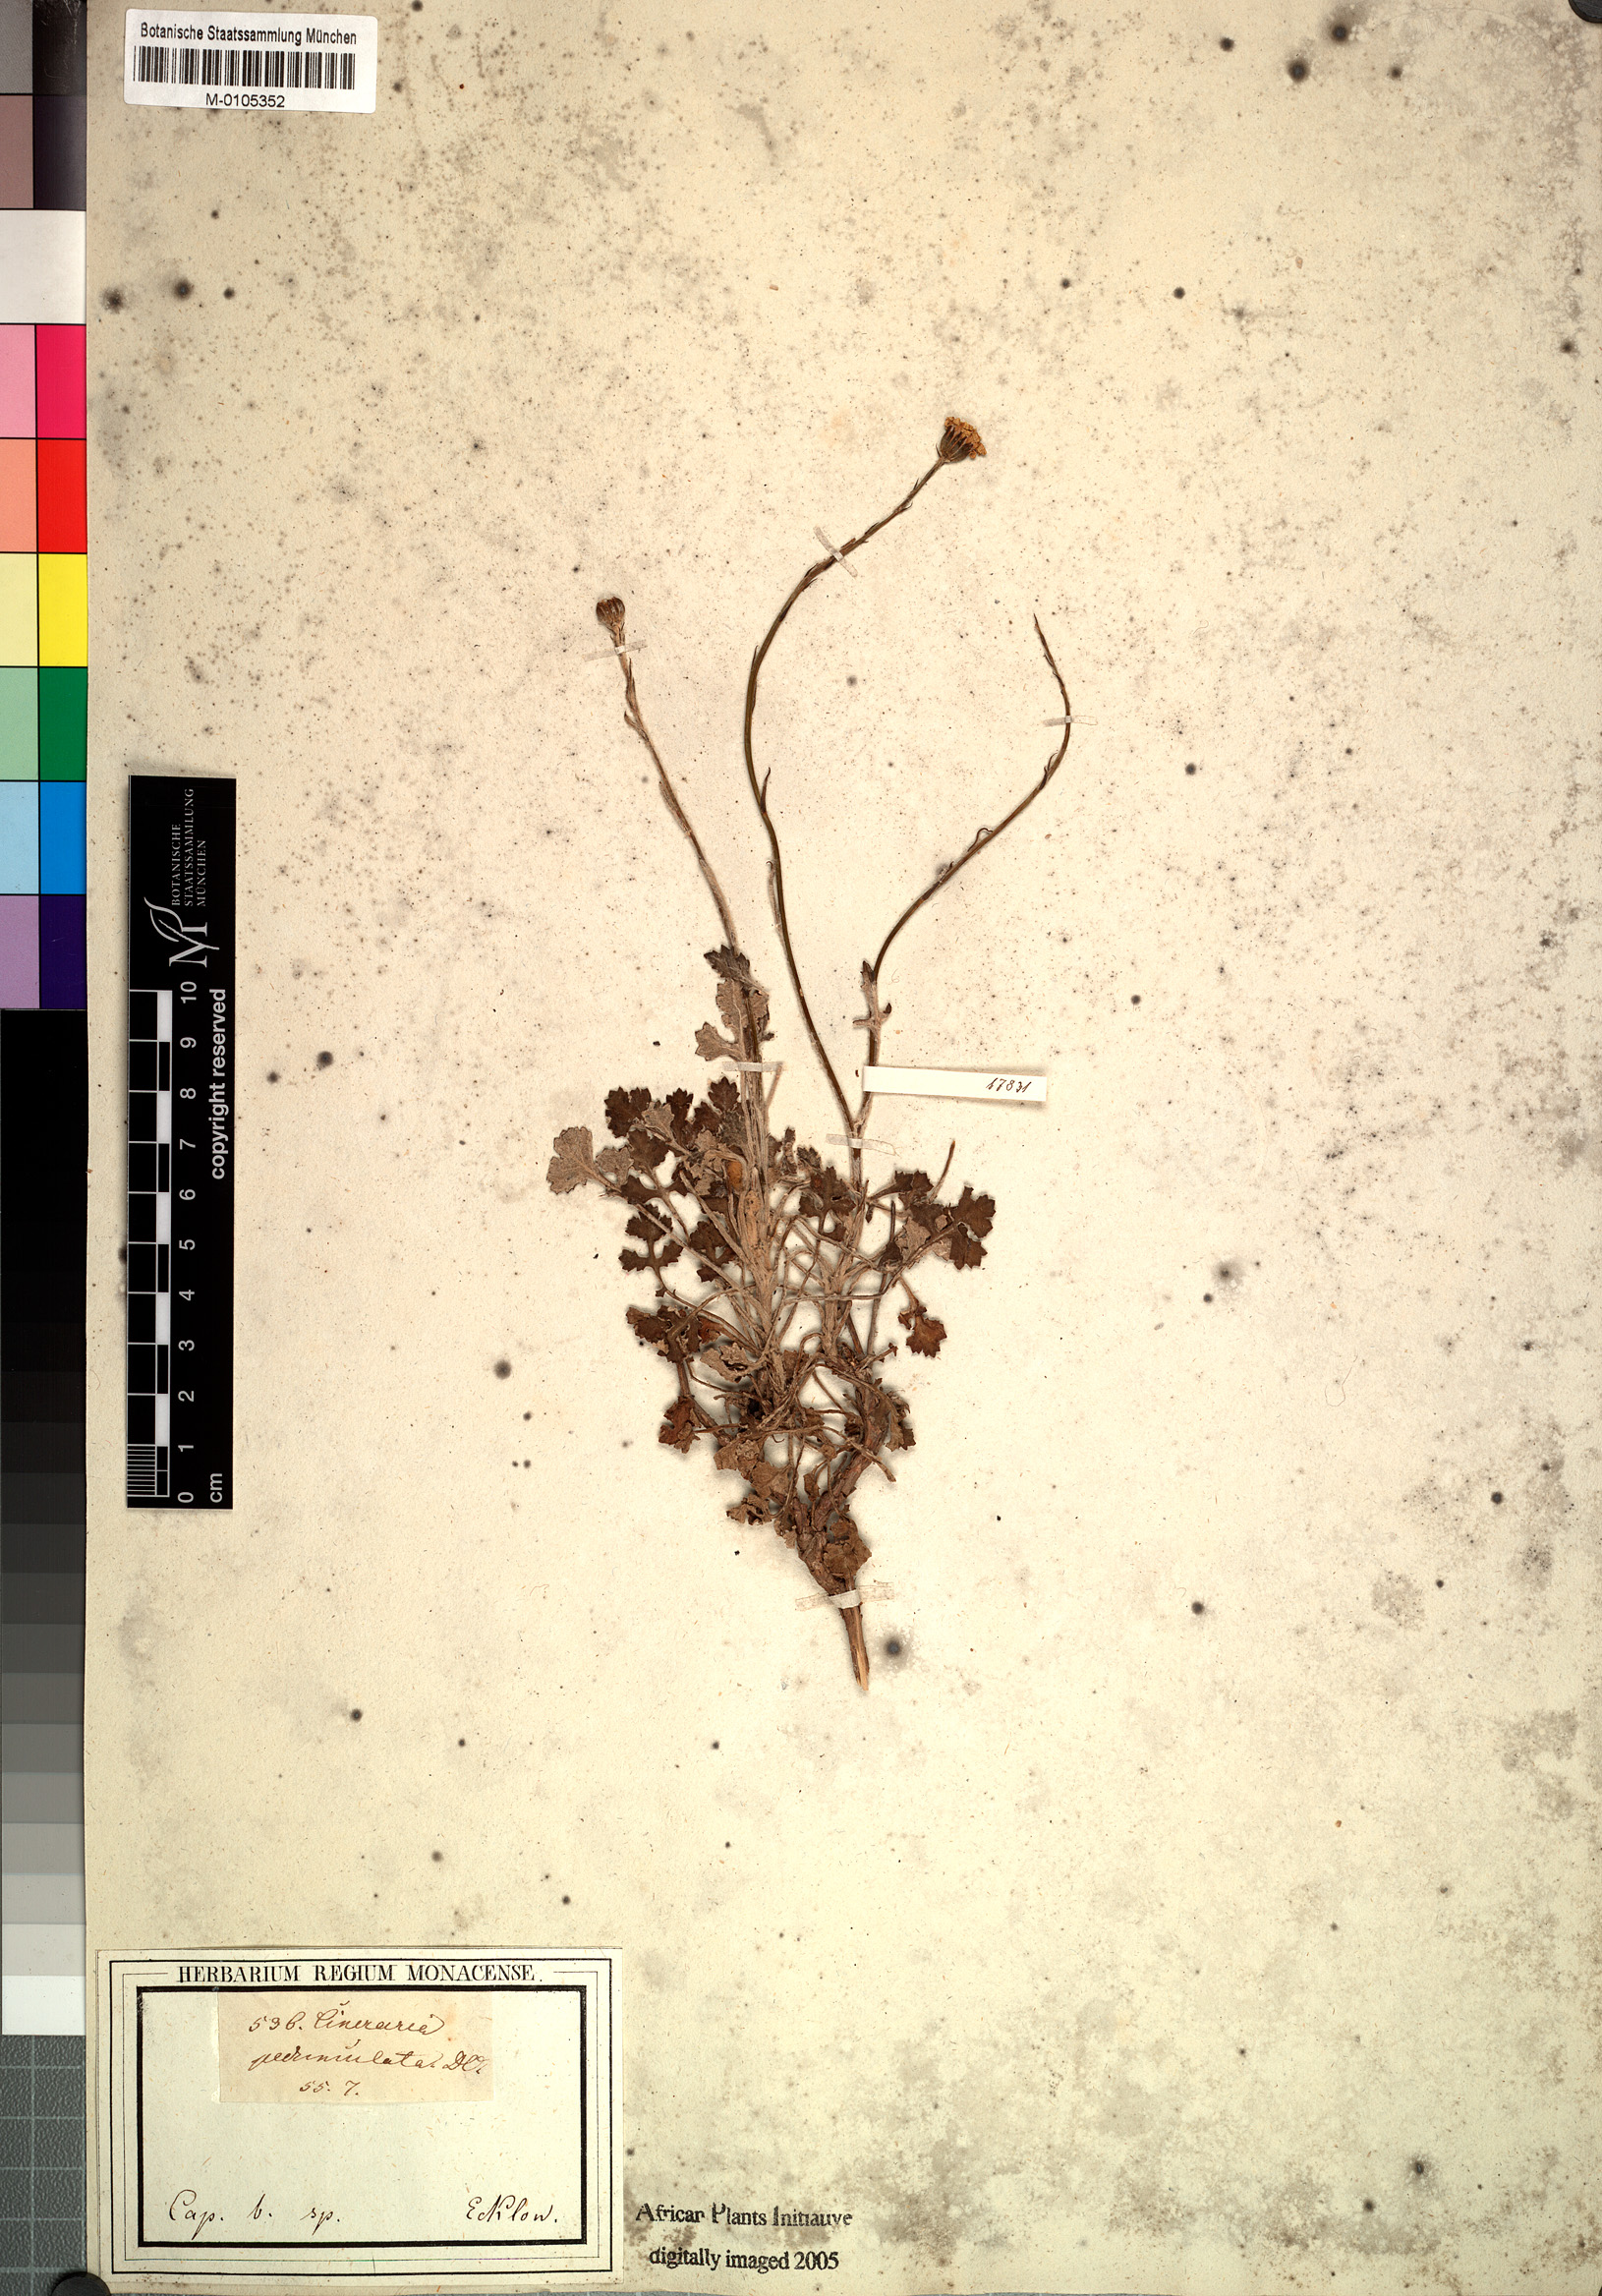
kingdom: Plantae
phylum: Tracheophyta
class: Magnoliopsida
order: Asterales
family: Asteraceae
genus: Bolandia
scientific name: Bolandia pedunculosa
